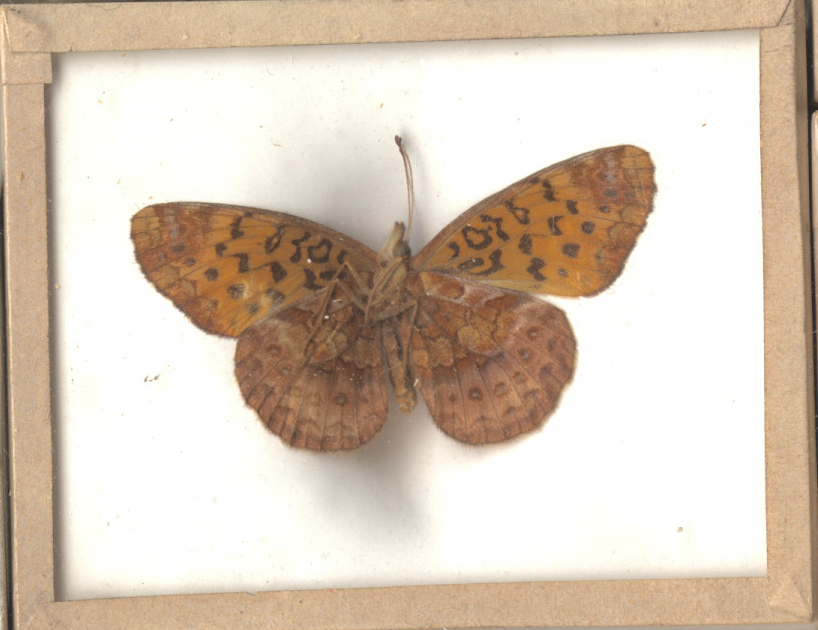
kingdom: Animalia
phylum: Arthropoda
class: Insecta
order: Lepidoptera
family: Nymphalidae
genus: Clossiana
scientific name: Clossiana toddi
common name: Meadow Fritillary
